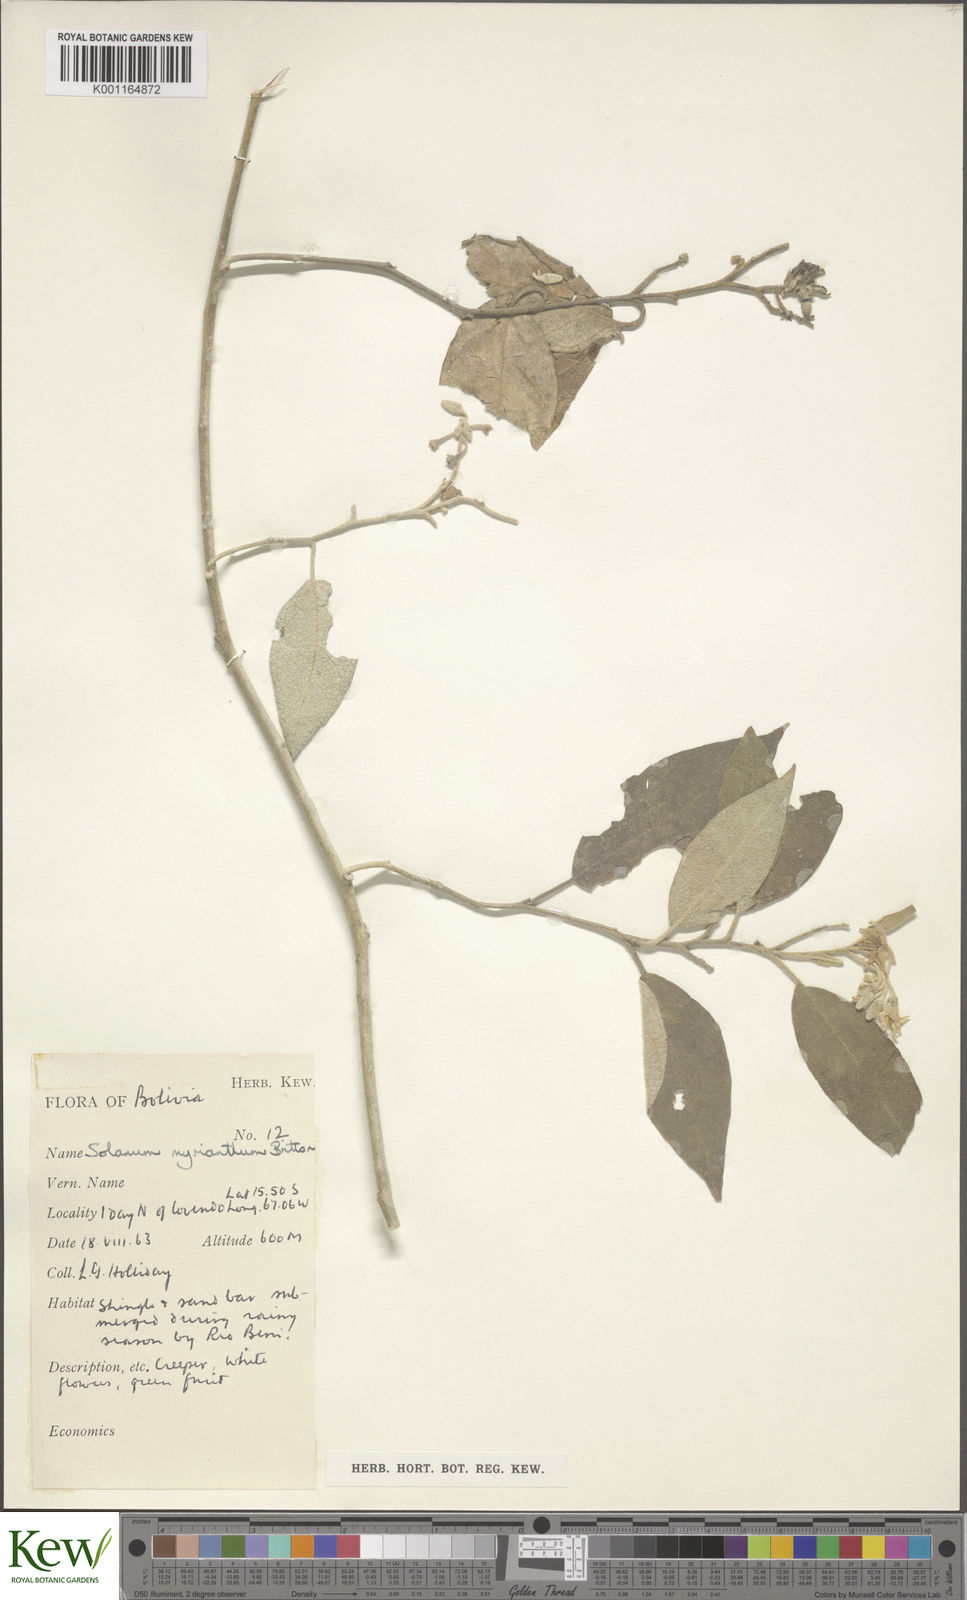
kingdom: Plantae
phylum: Tracheophyta
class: Magnoliopsida
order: Solanales
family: Solanaceae
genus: Solanum
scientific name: Solanum myriacanthum
